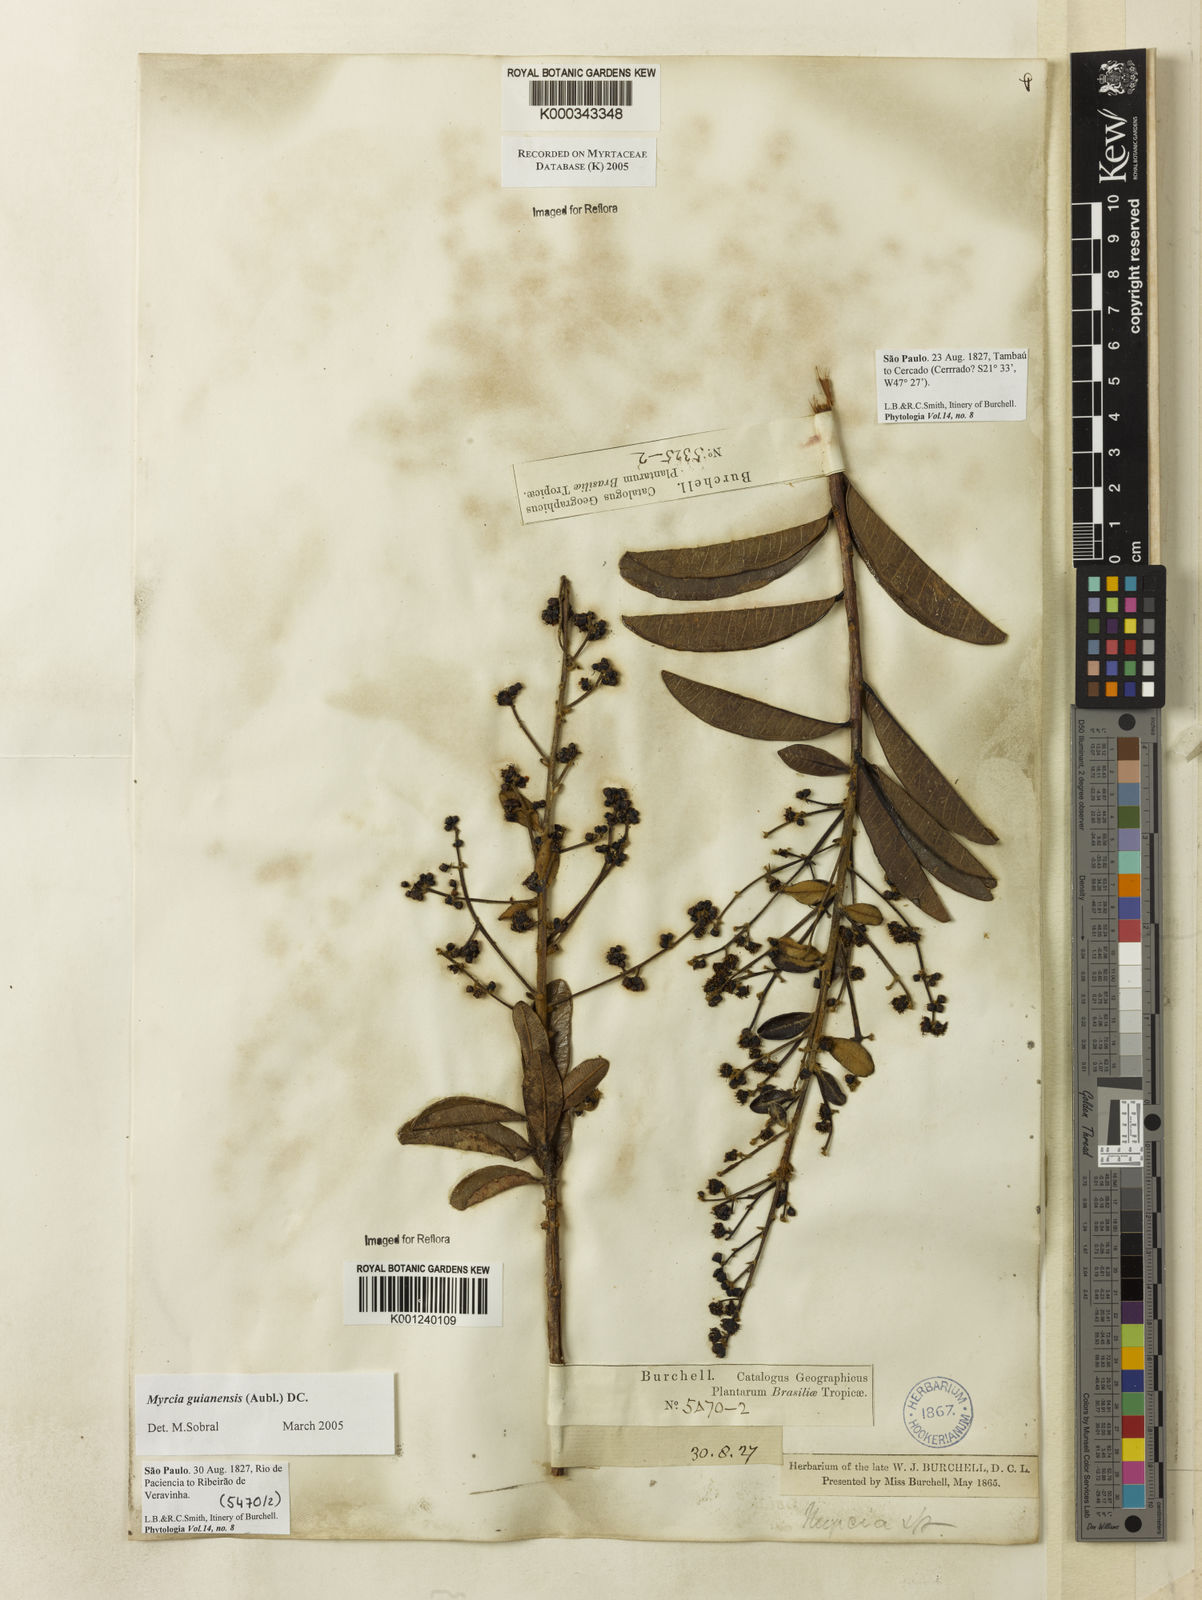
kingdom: Plantae
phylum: Tracheophyta
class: Magnoliopsida
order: Myrtales
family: Myrtaceae
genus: Myrcia
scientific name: Myrcia guianensis
